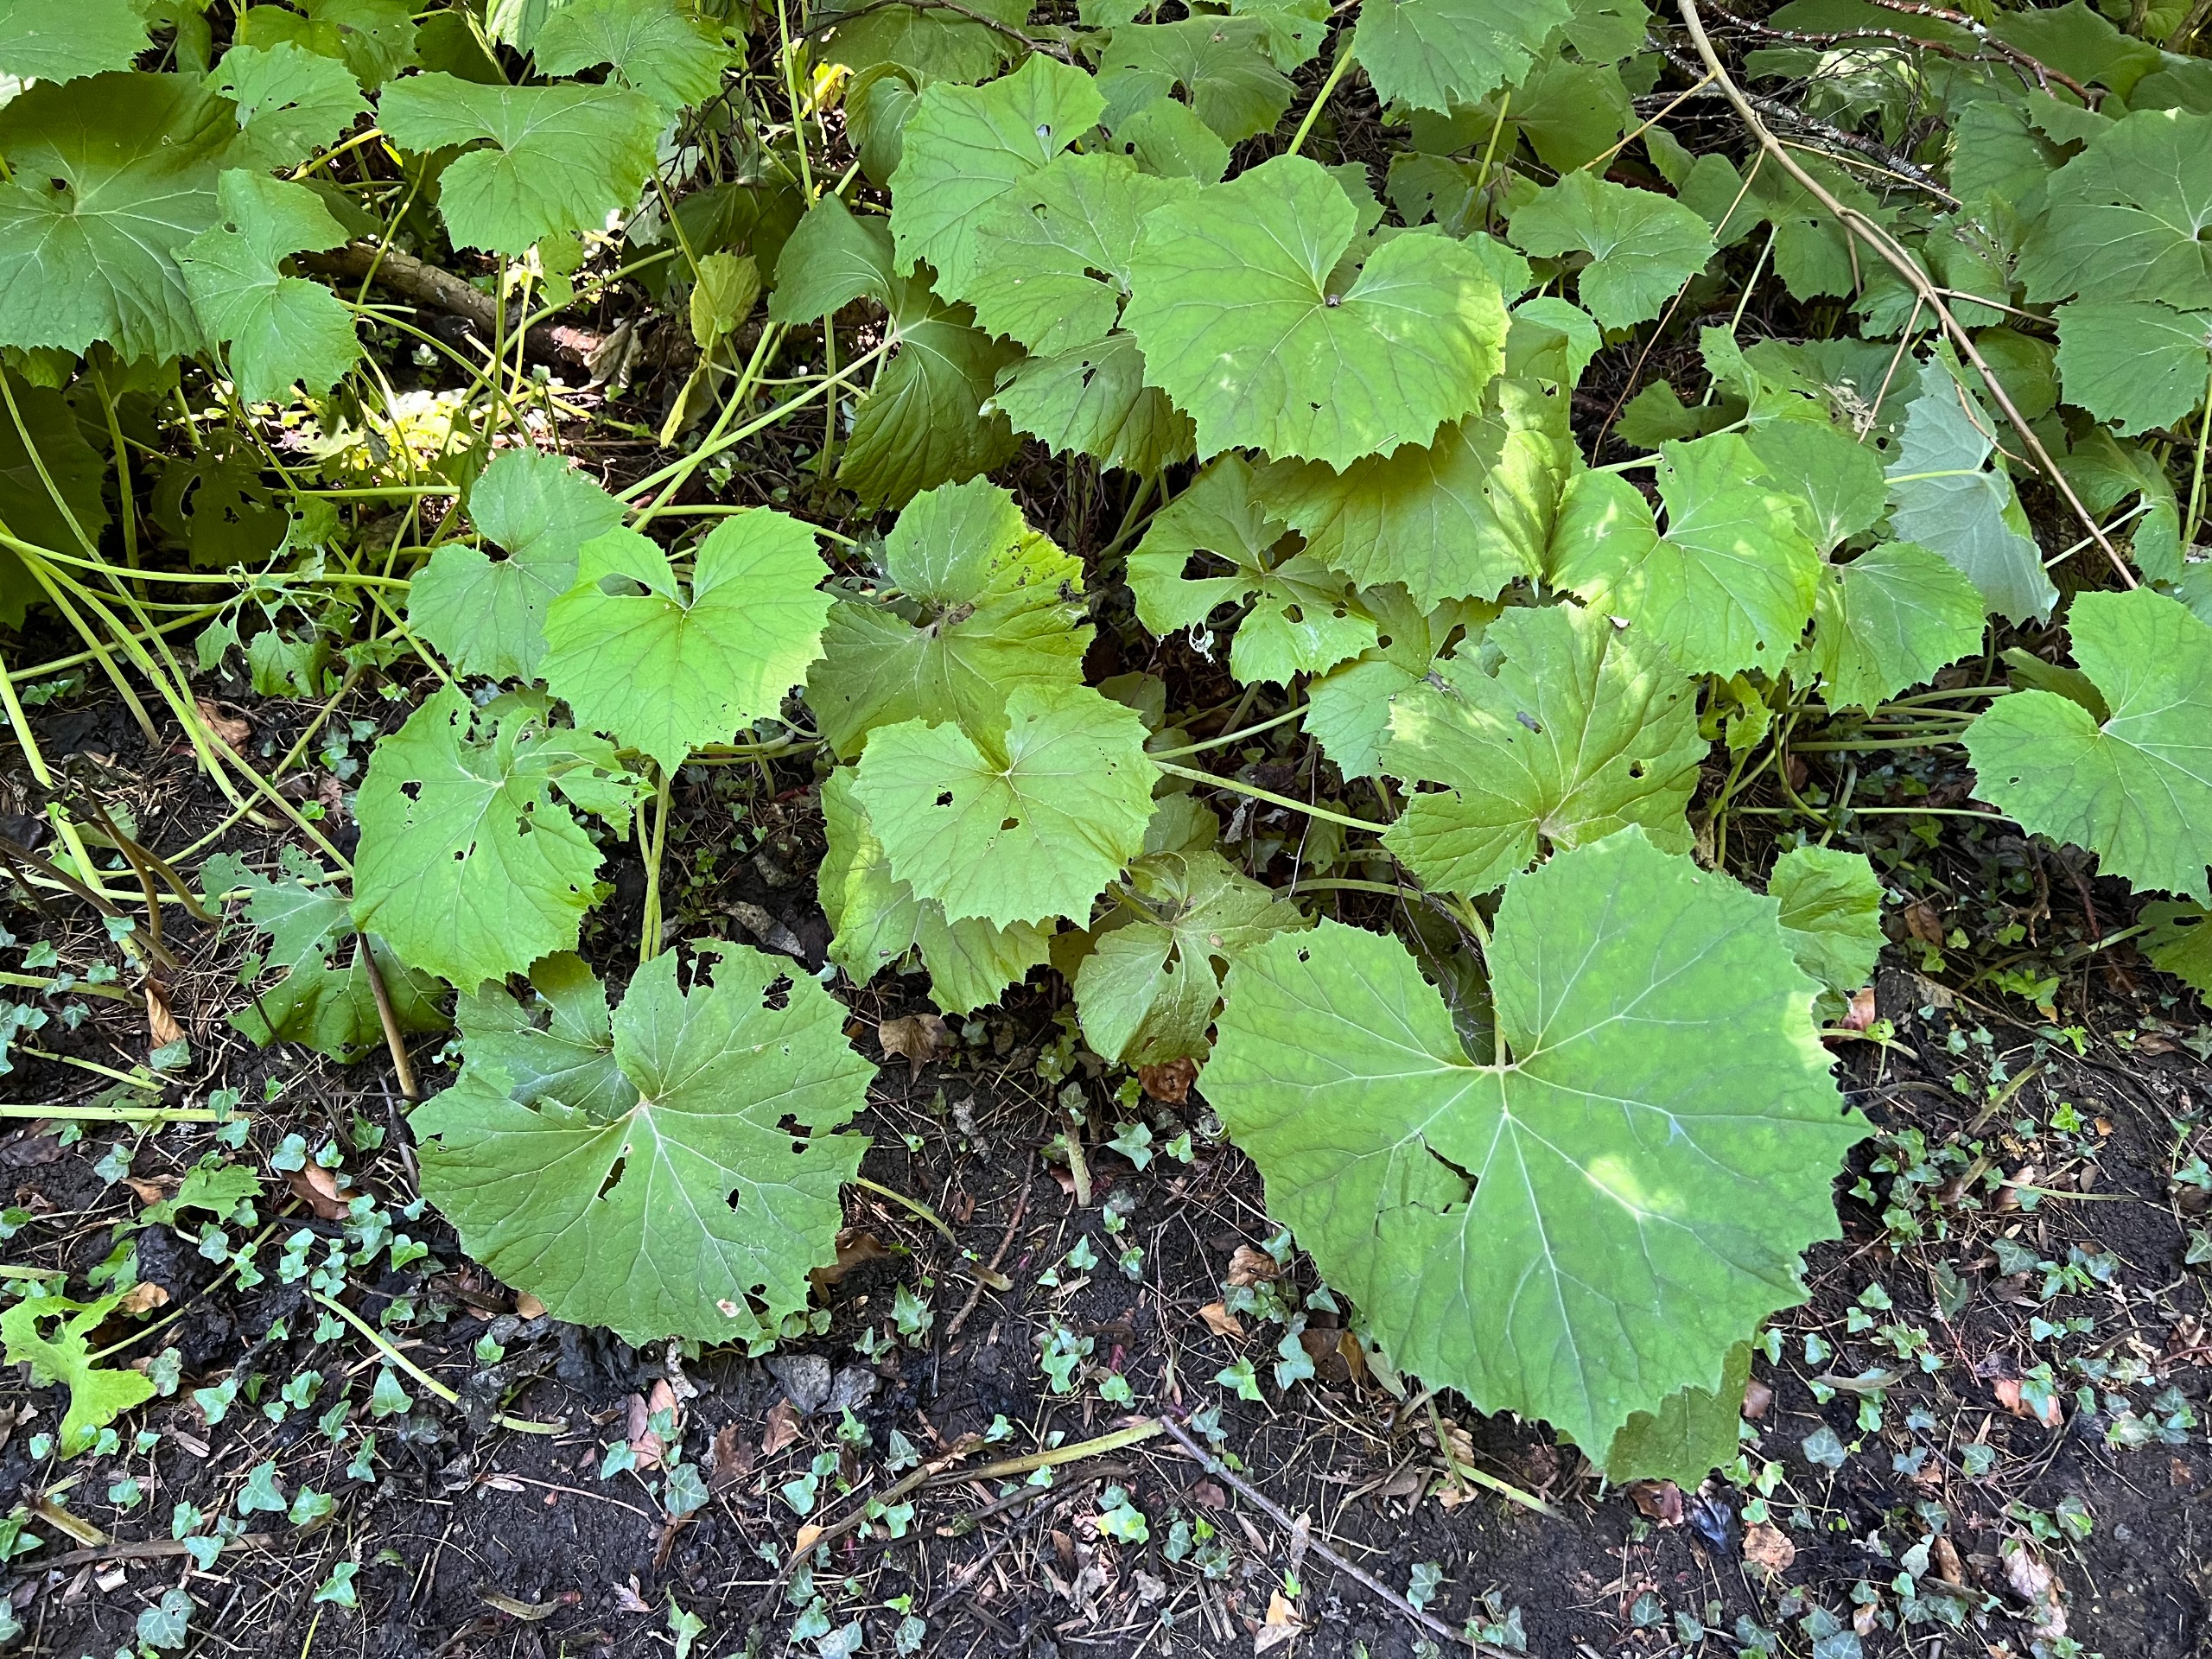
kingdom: Plantae
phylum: Tracheophyta
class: Magnoliopsida
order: Asterales
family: Asteraceae
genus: Petasites
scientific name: Petasites albus
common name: Hvid hestehov
